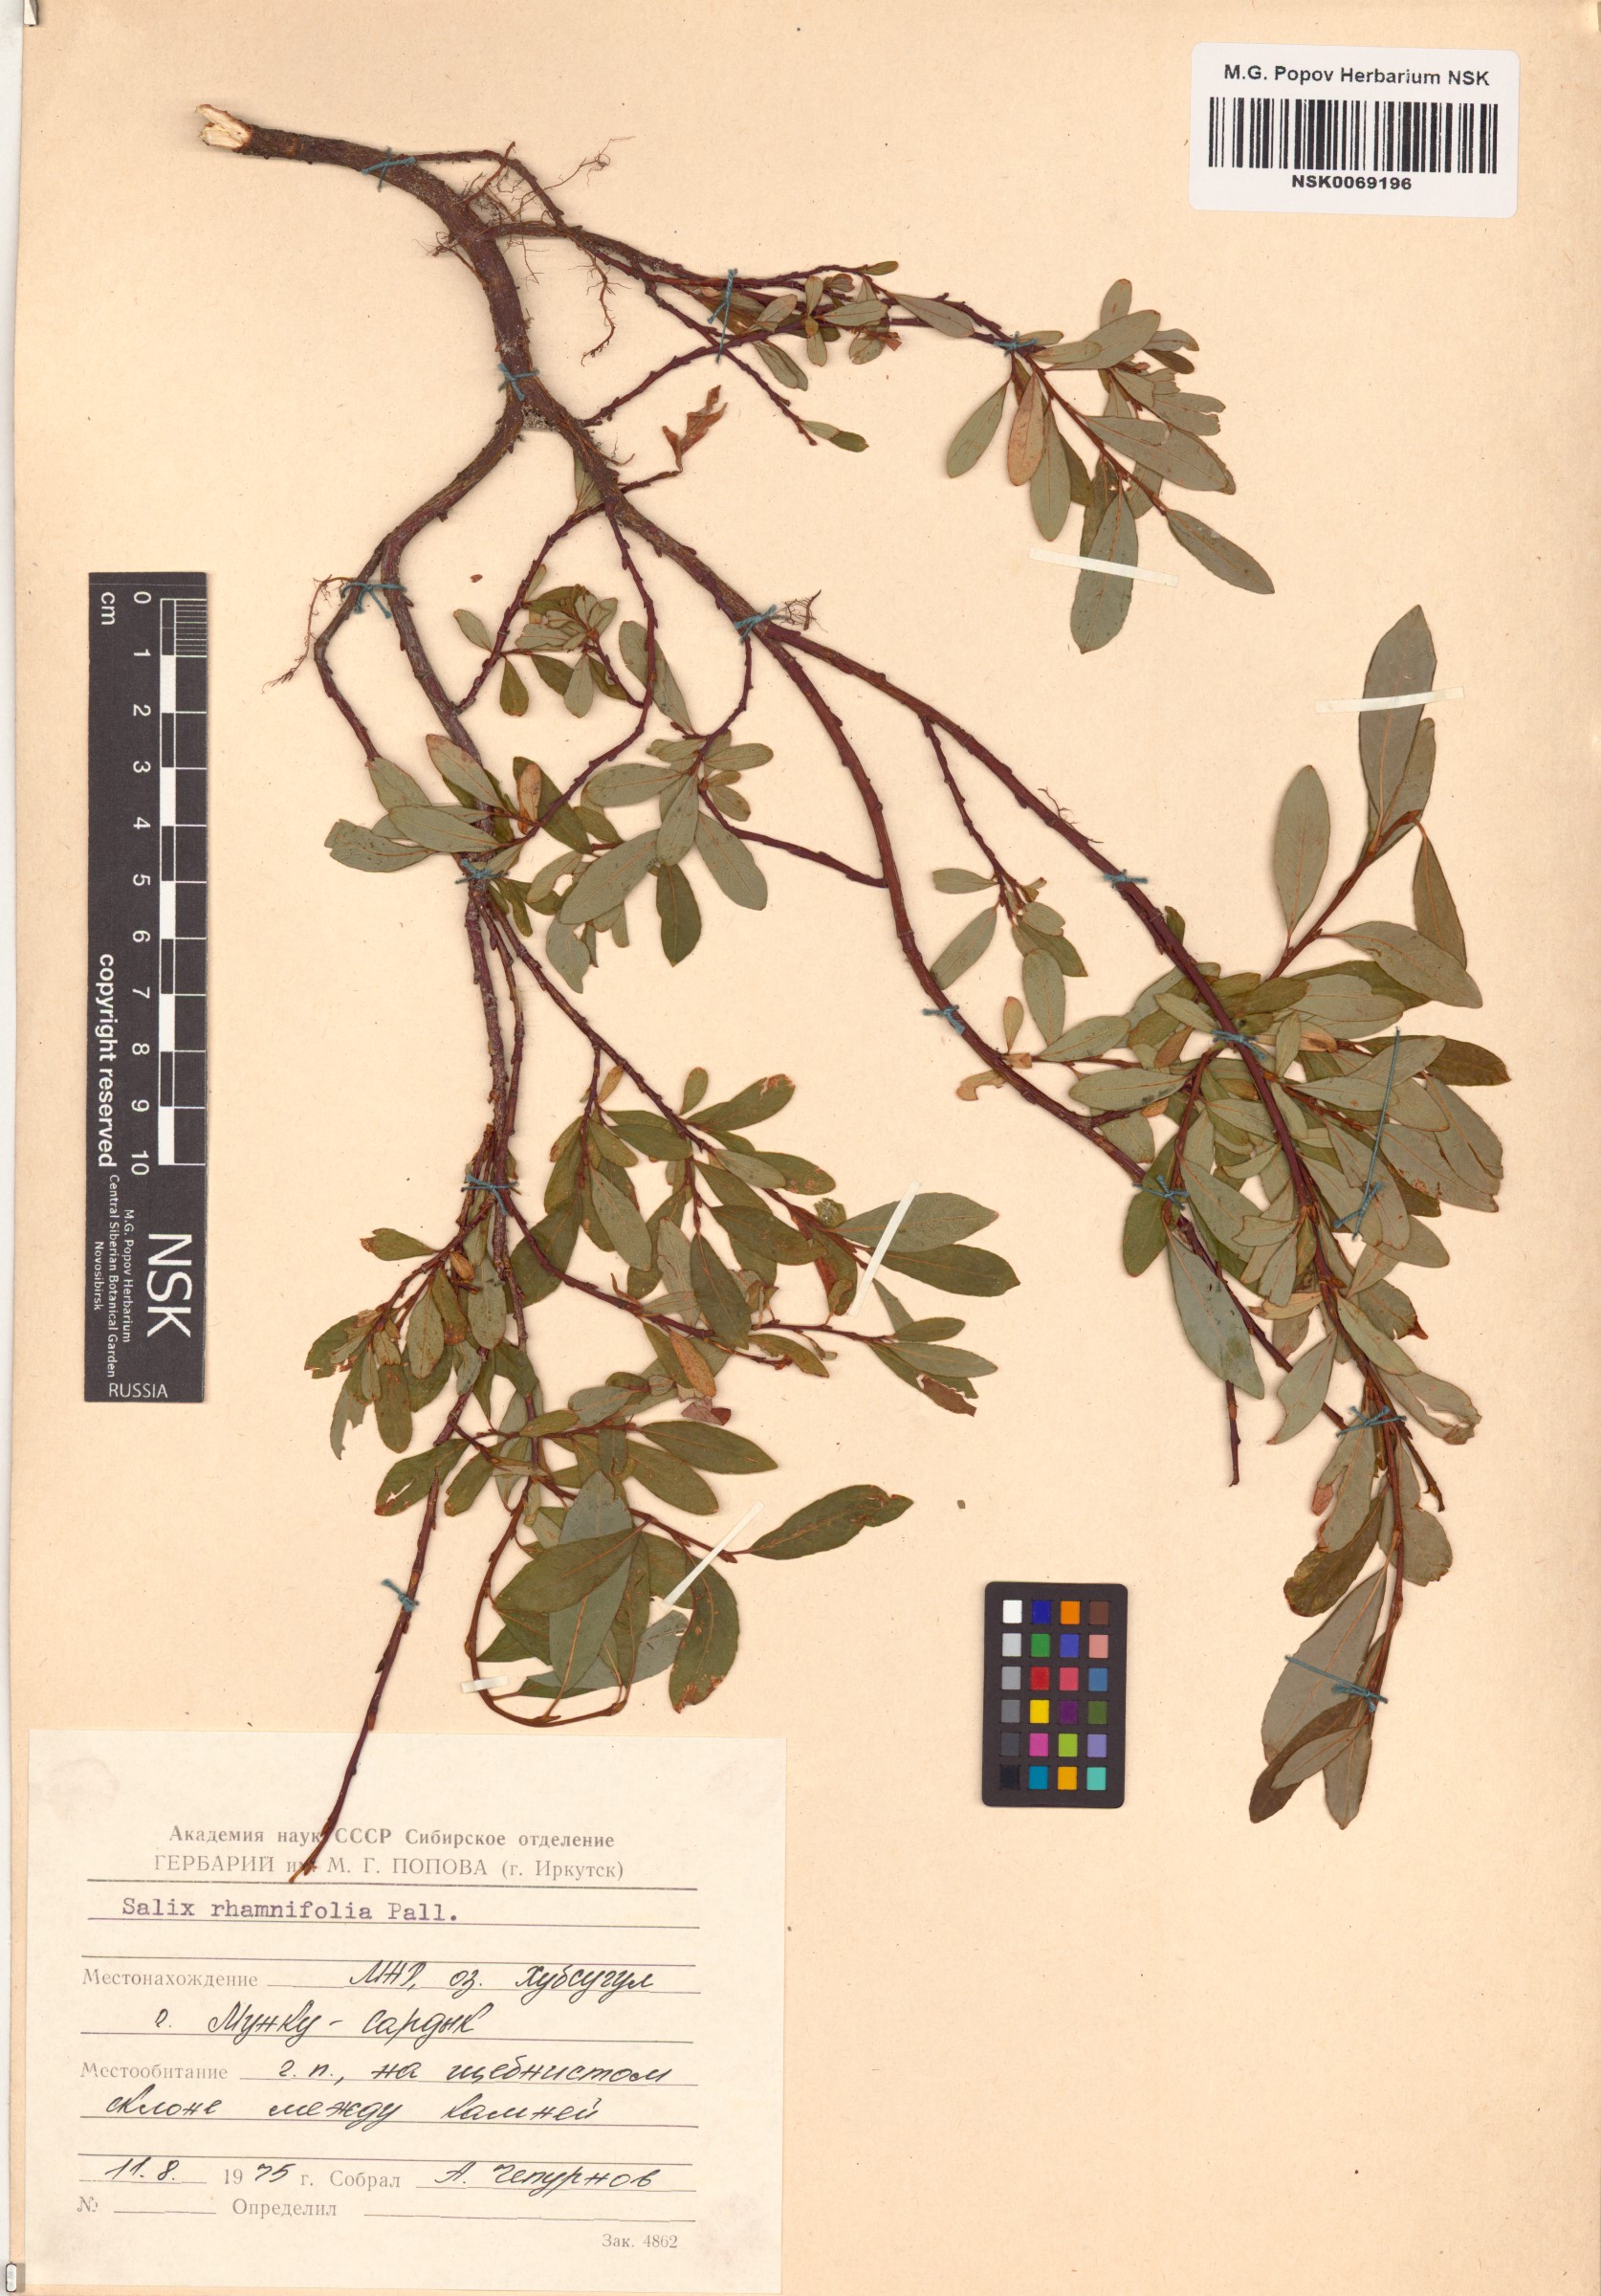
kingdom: Plantae
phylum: Tracheophyta
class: Magnoliopsida
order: Malpighiales
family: Salicaceae
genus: Salix
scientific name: Salix rhamnifolia
